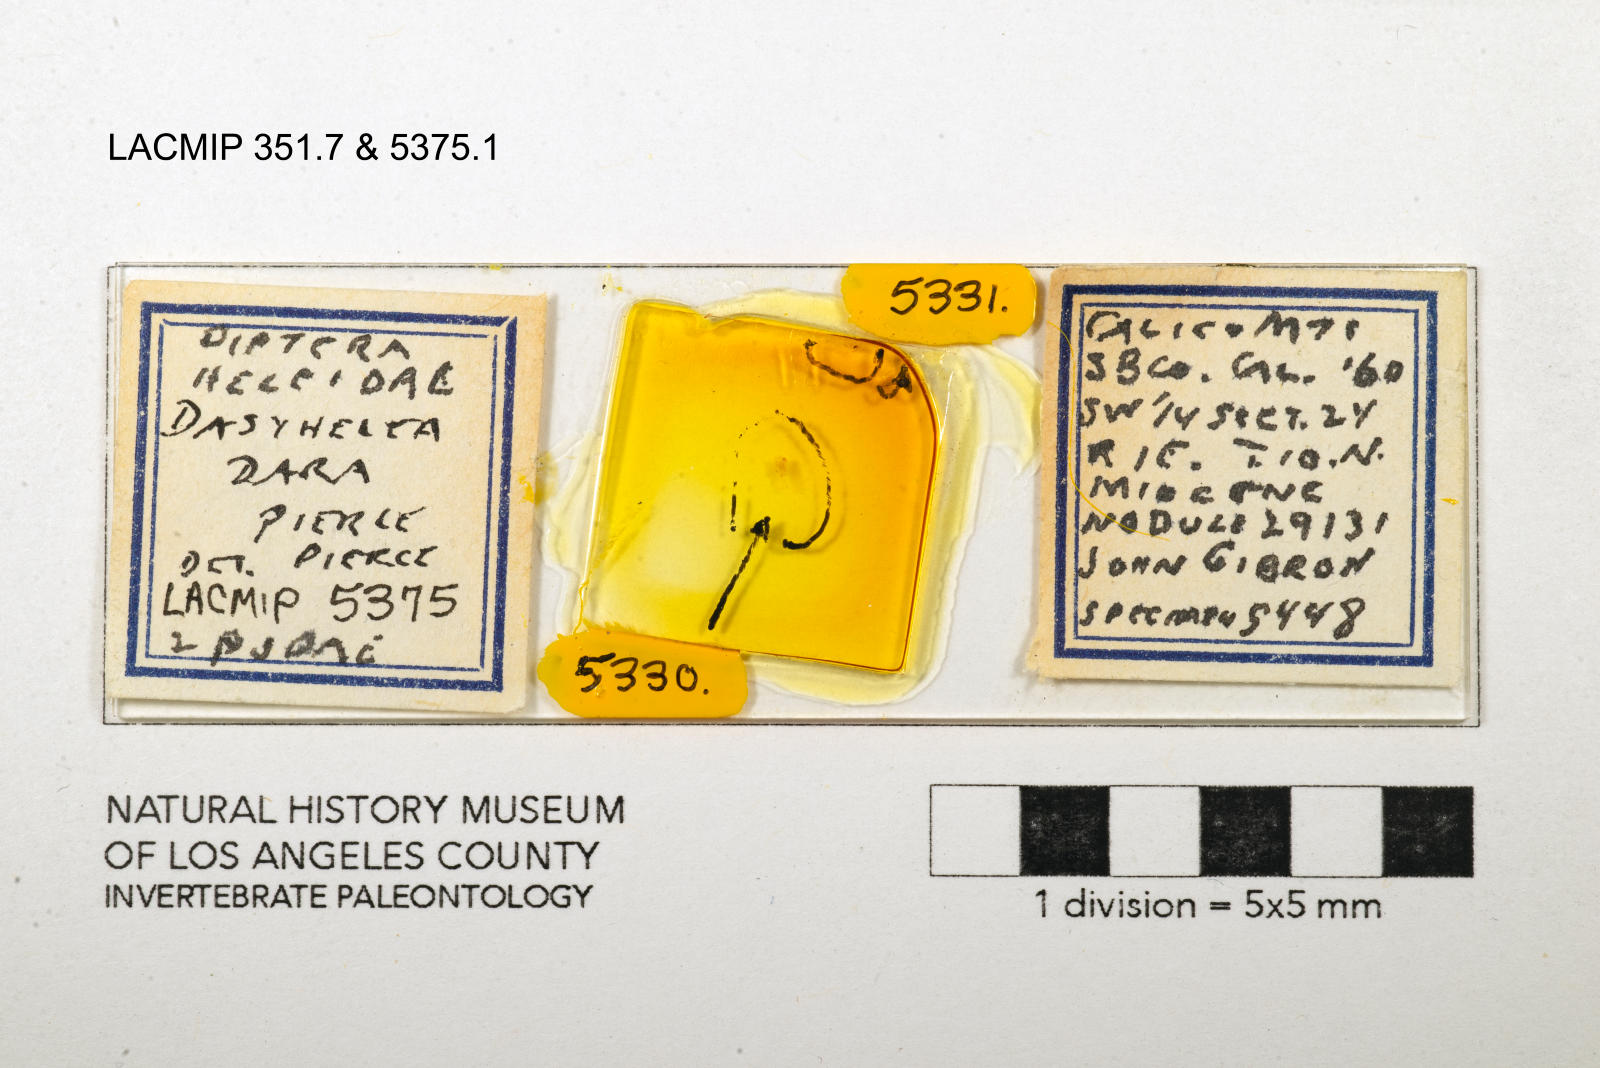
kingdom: Animalia
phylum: Arthropoda
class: Insecta
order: Diptera
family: Ceratopogonidae
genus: Dasyhelea
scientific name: Dasyhelea dara
